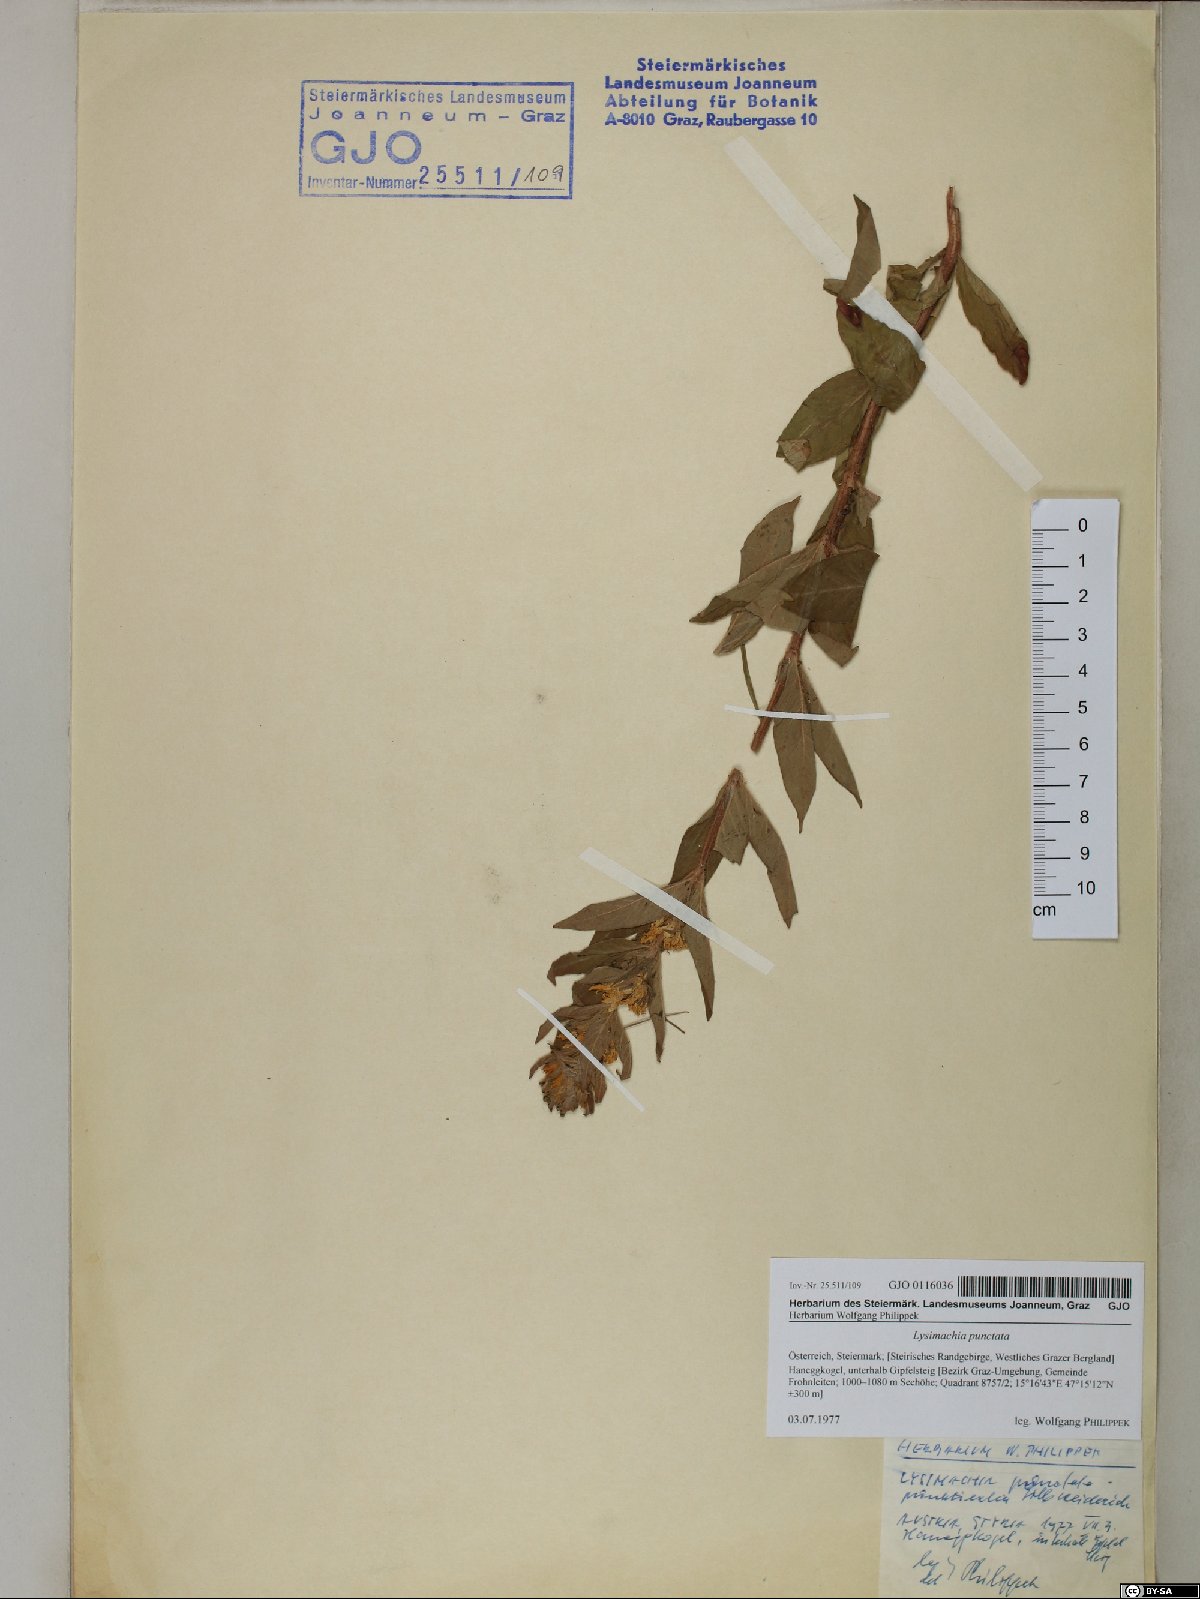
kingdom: Plantae
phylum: Tracheophyta
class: Magnoliopsida
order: Ericales
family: Primulaceae
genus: Lysimachia
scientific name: Lysimachia punctata
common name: Dotted loosestrife
